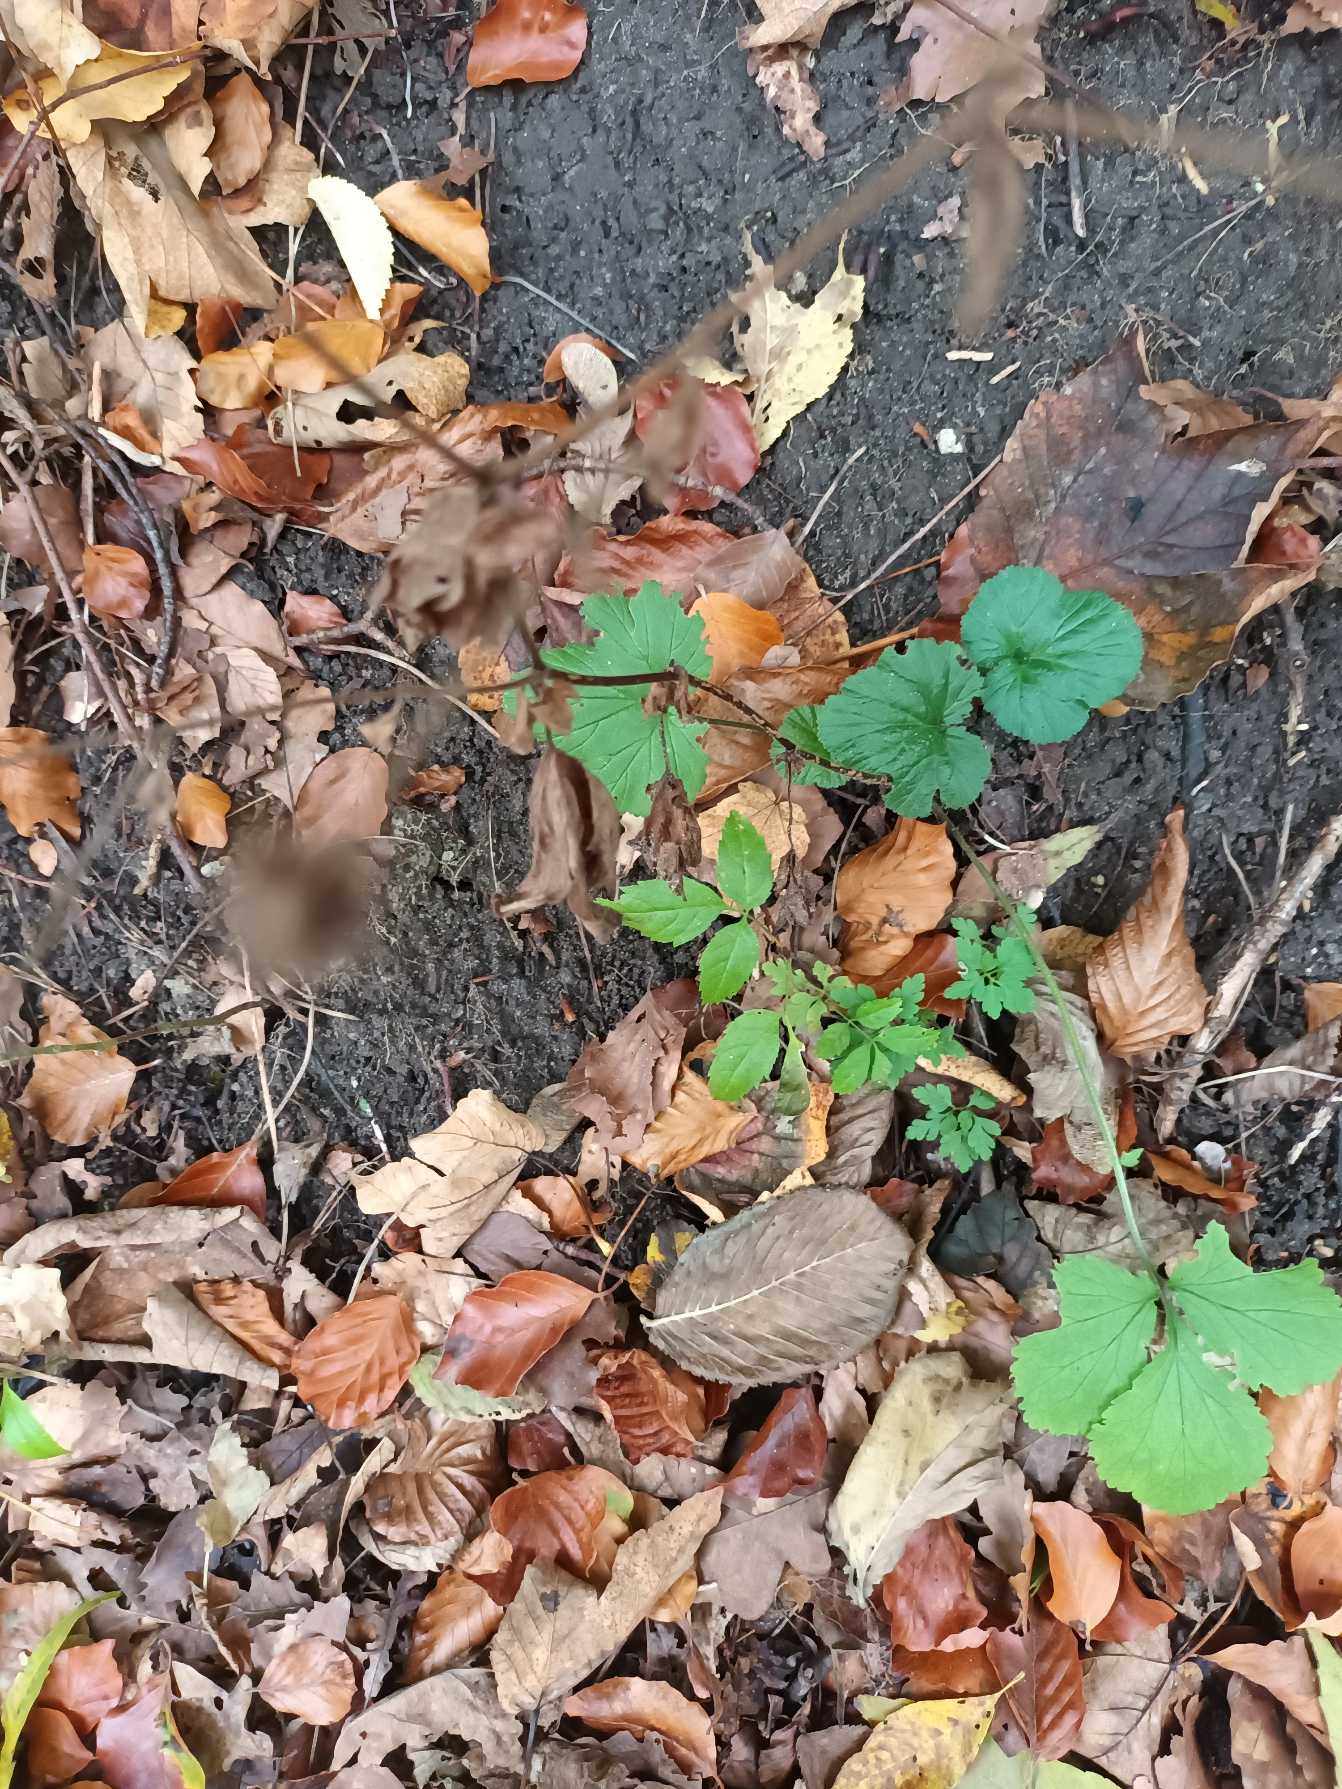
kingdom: Plantae
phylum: Tracheophyta
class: Magnoliopsida
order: Rosales
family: Rosaceae
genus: Geum
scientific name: Geum urbanum
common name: Feber-nellikerod
